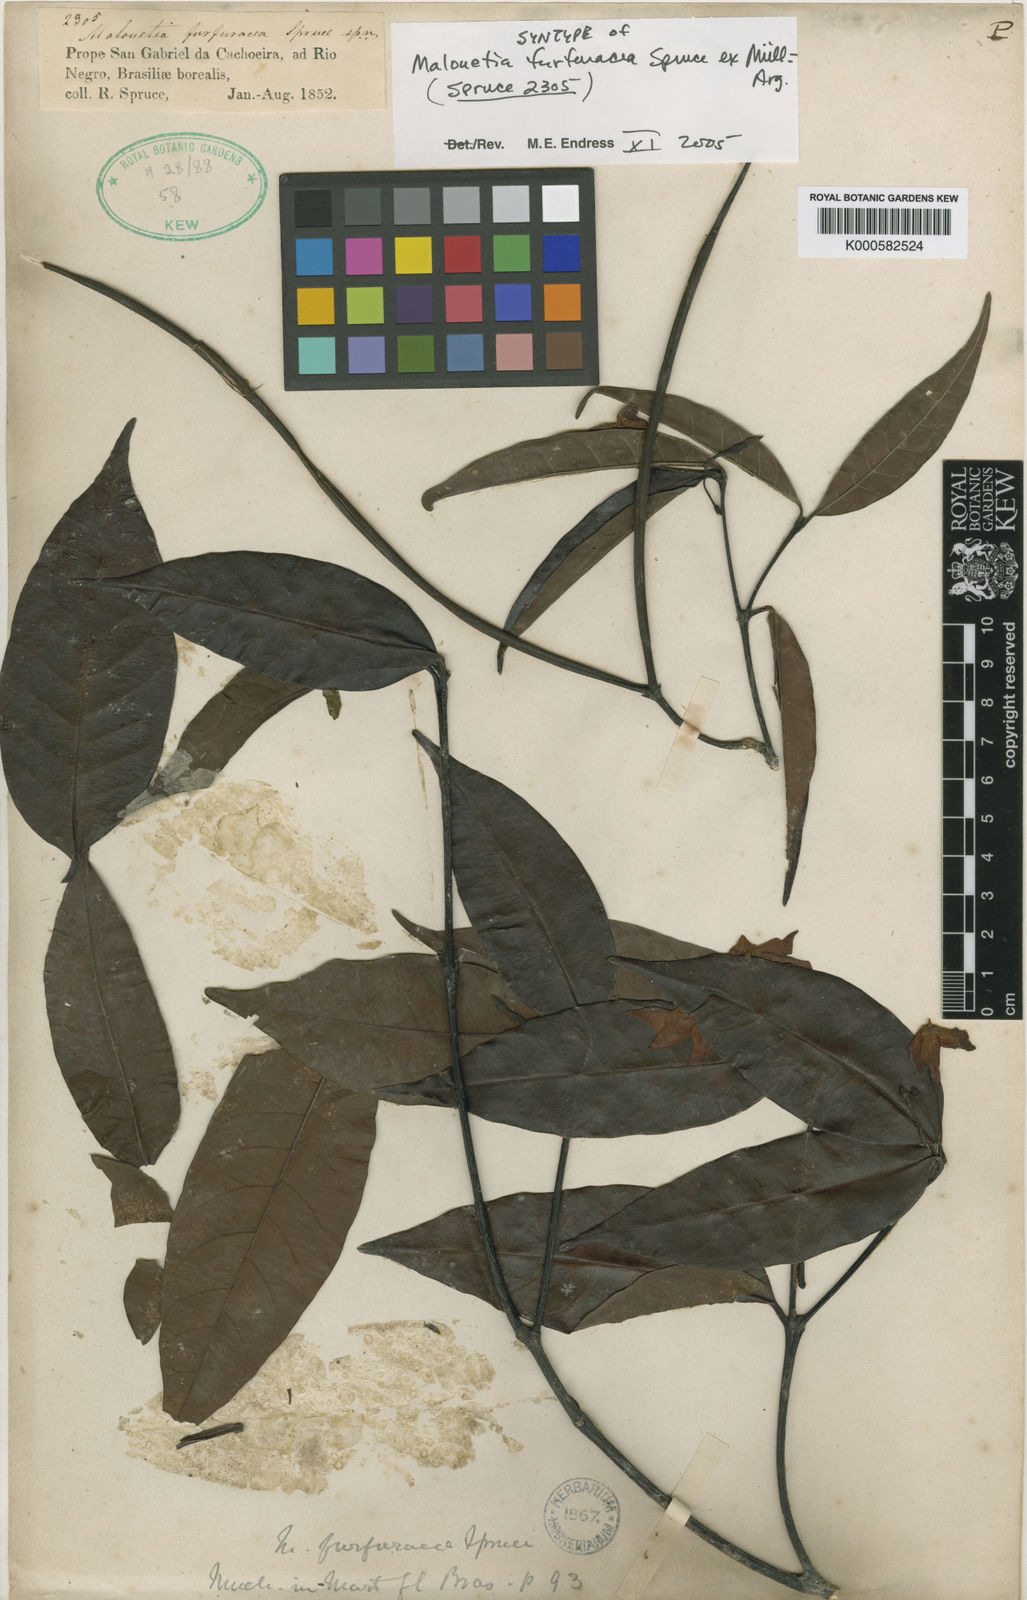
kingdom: Plantae
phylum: Tracheophyta
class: Magnoliopsida
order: Gentianales
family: Apocynaceae
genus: Malouetia
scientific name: Malouetia
